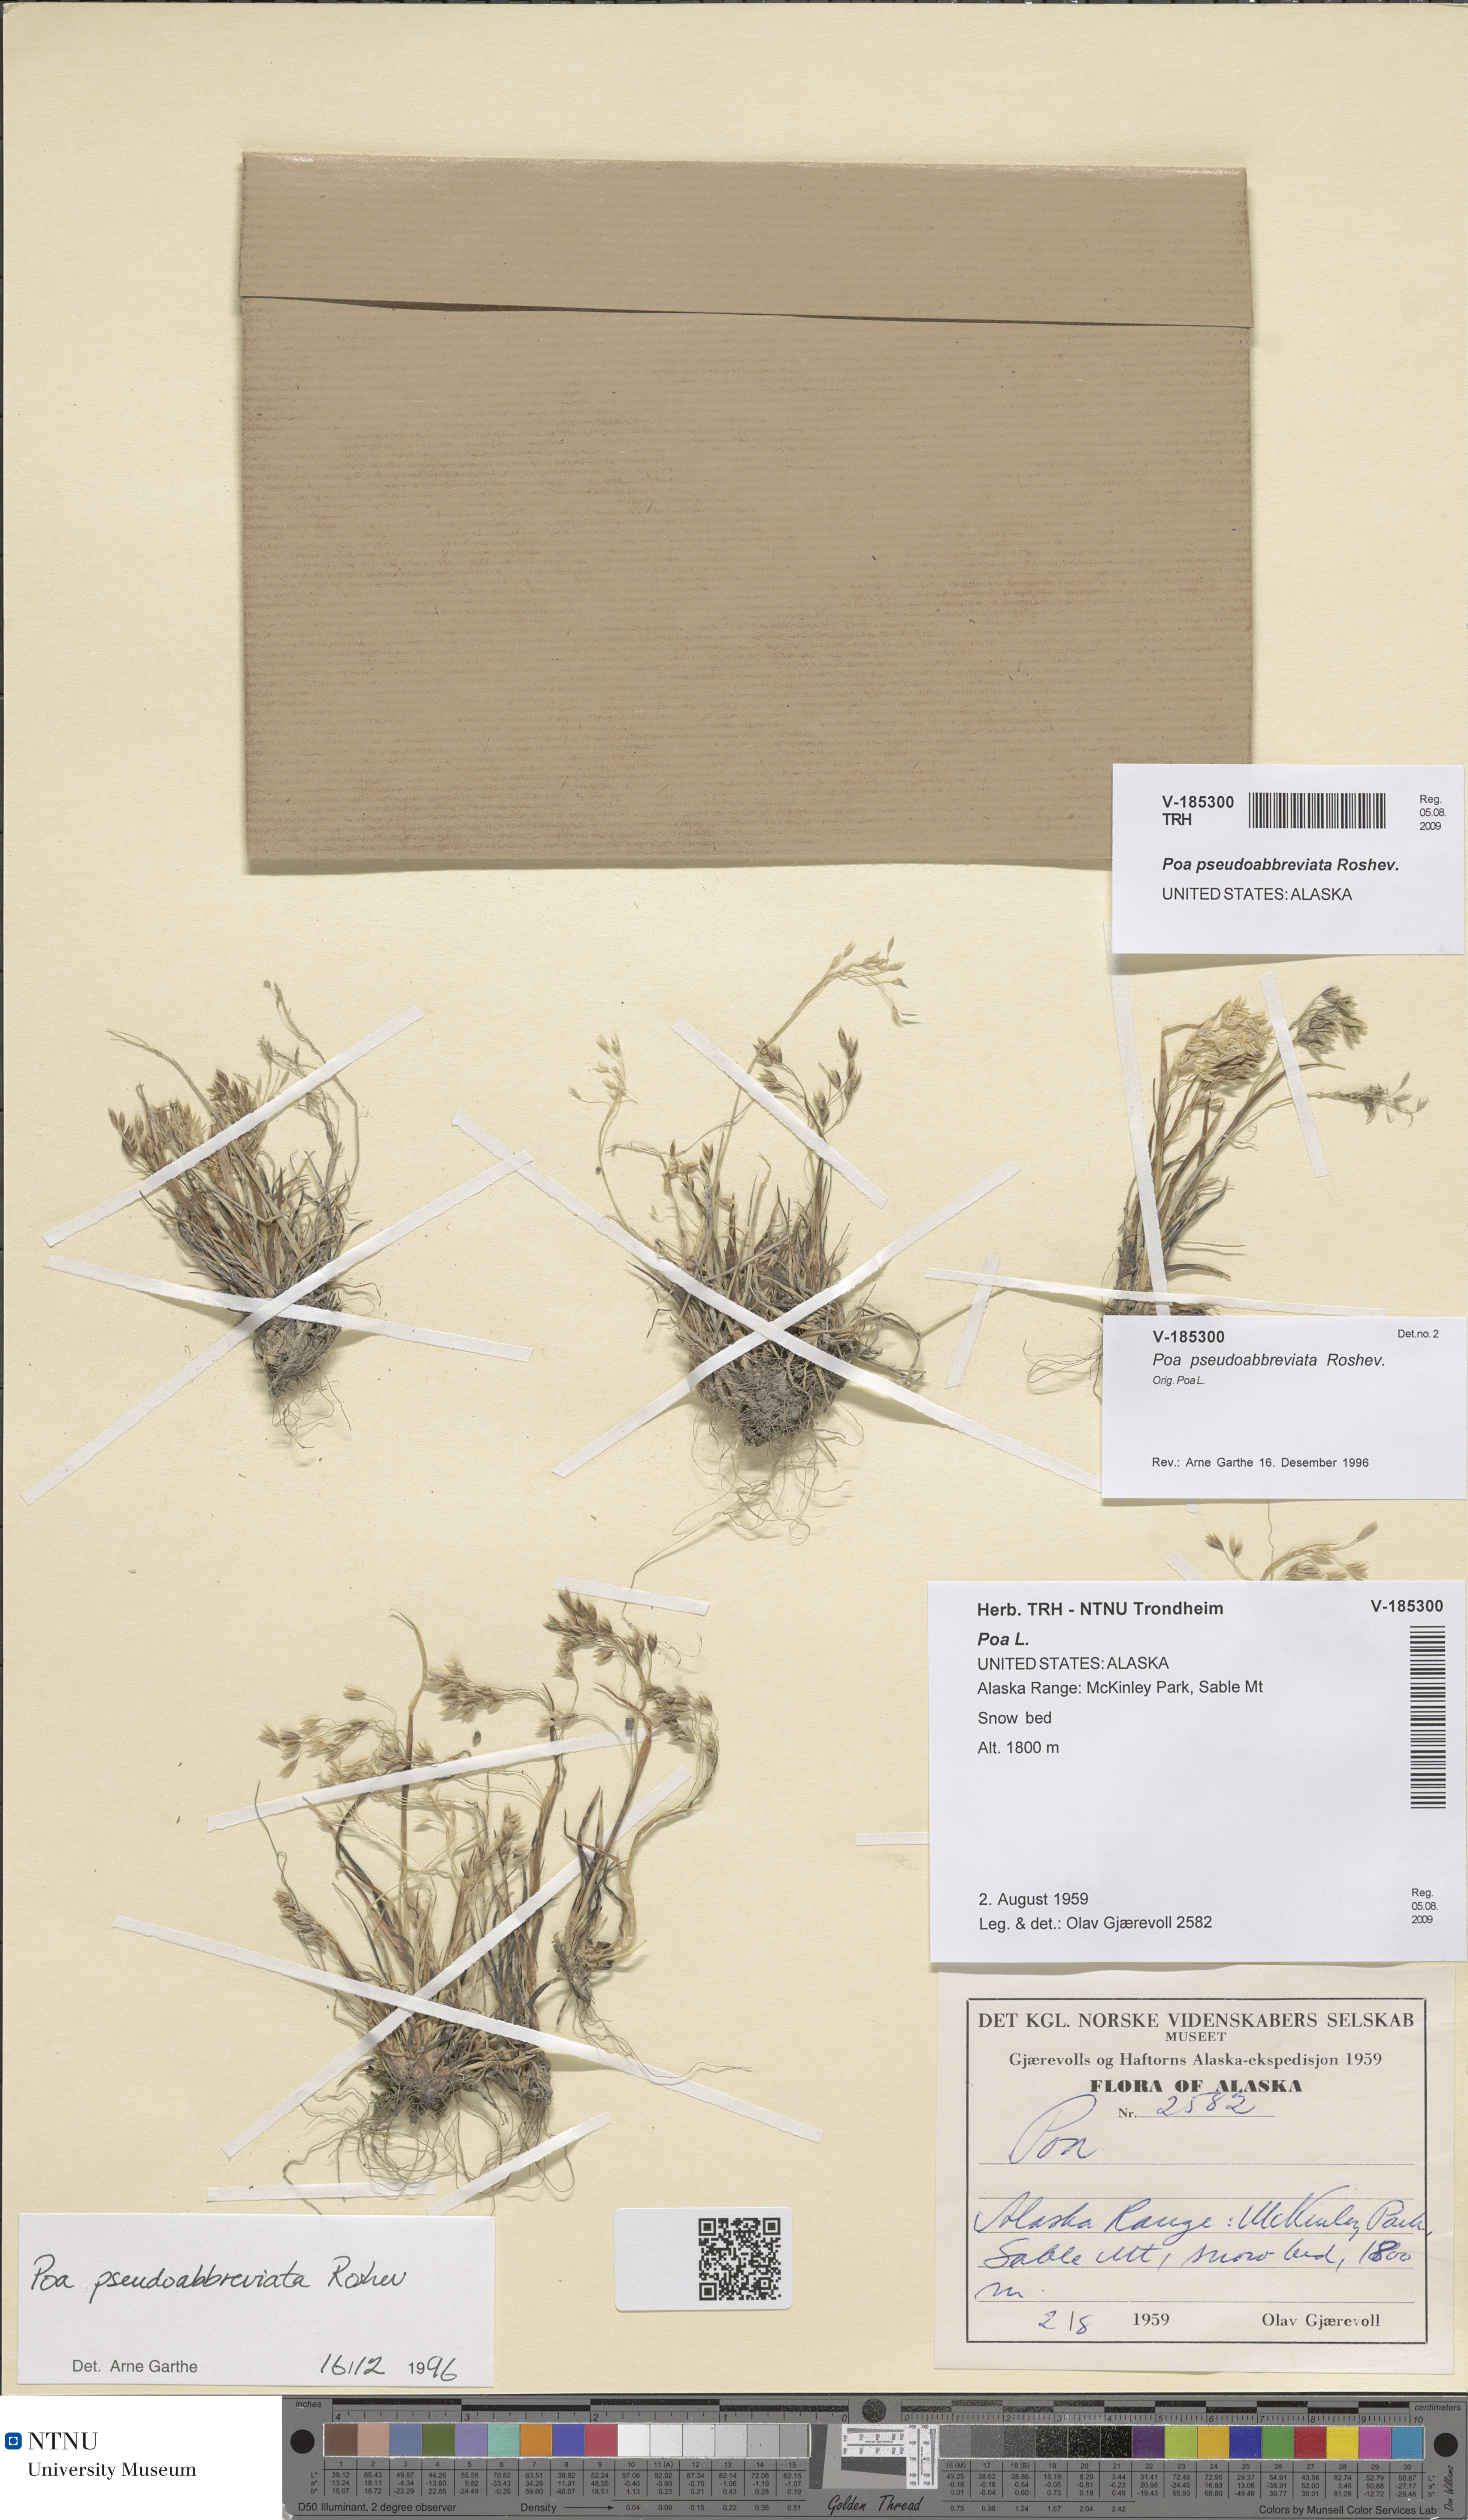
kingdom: Plantae
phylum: Tracheophyta
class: Liliopsida
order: Poales
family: Poaceae
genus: Poa
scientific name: Poa pseudoabbreviata
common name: Polar bluegrass
